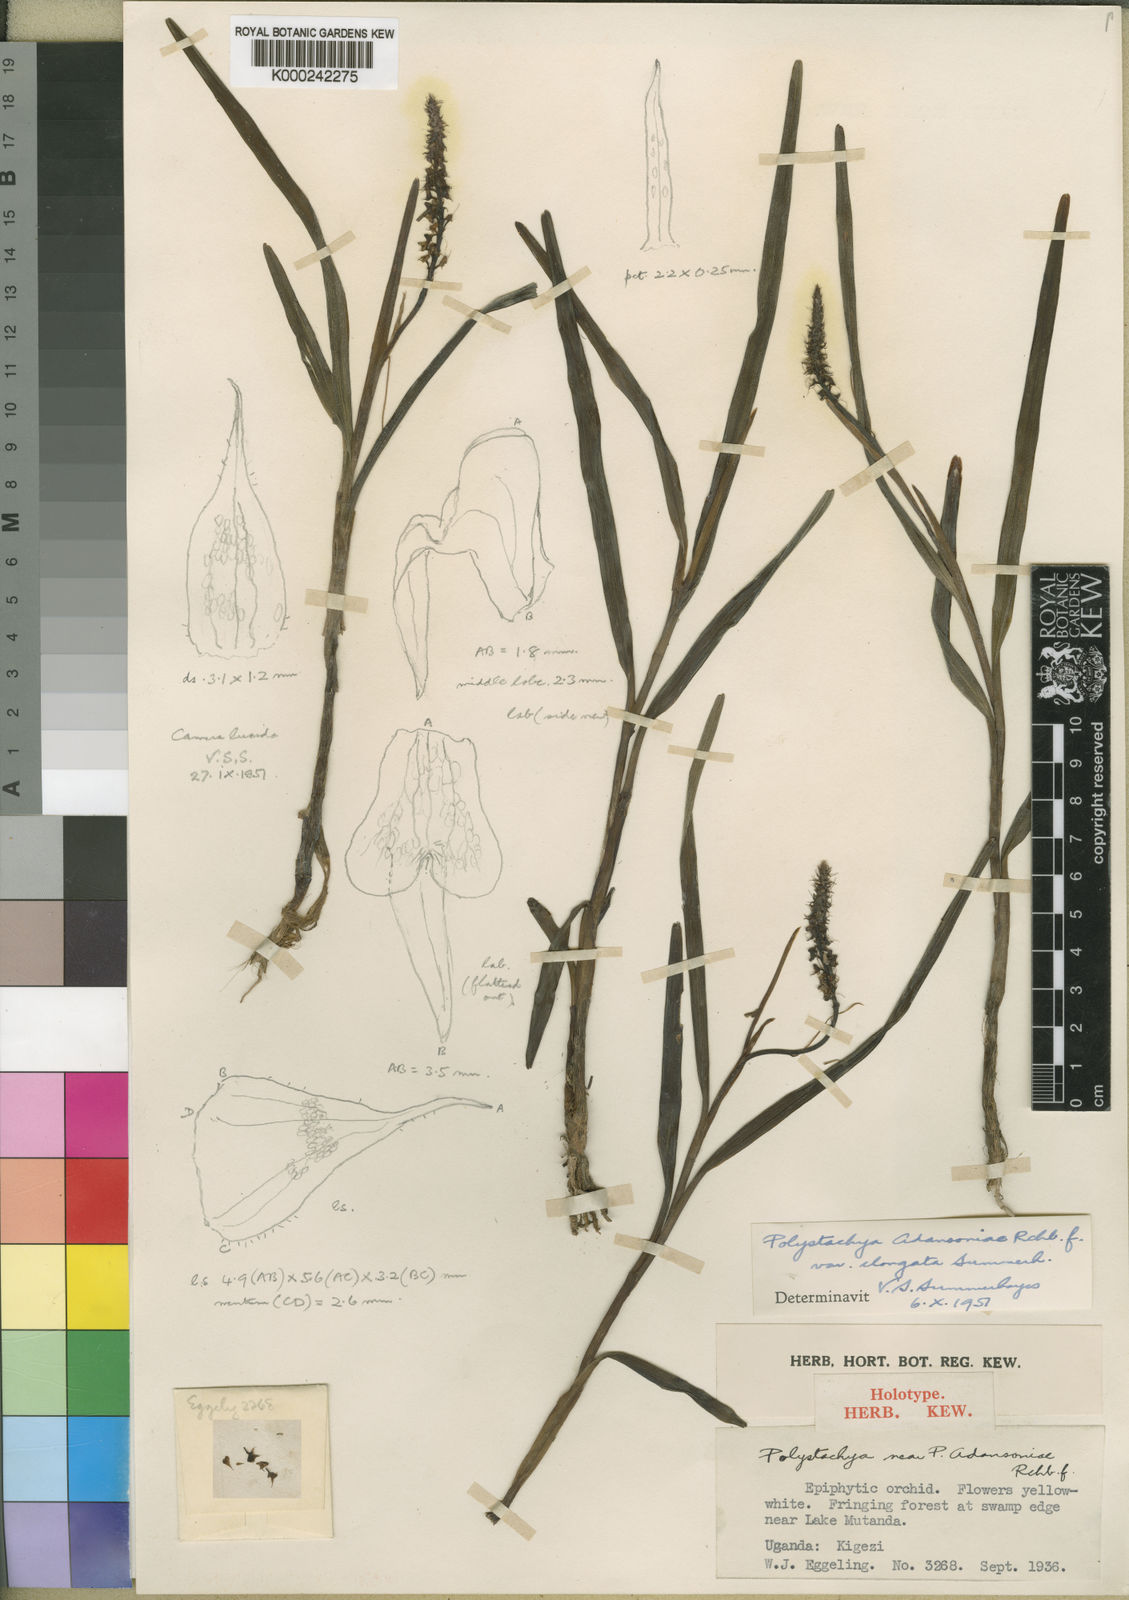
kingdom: Plantae
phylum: Tracheophyta
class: Liliopsida
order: Asparagales
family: Orchidaceae
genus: Polystachya
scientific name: Polystachya adansoniae
